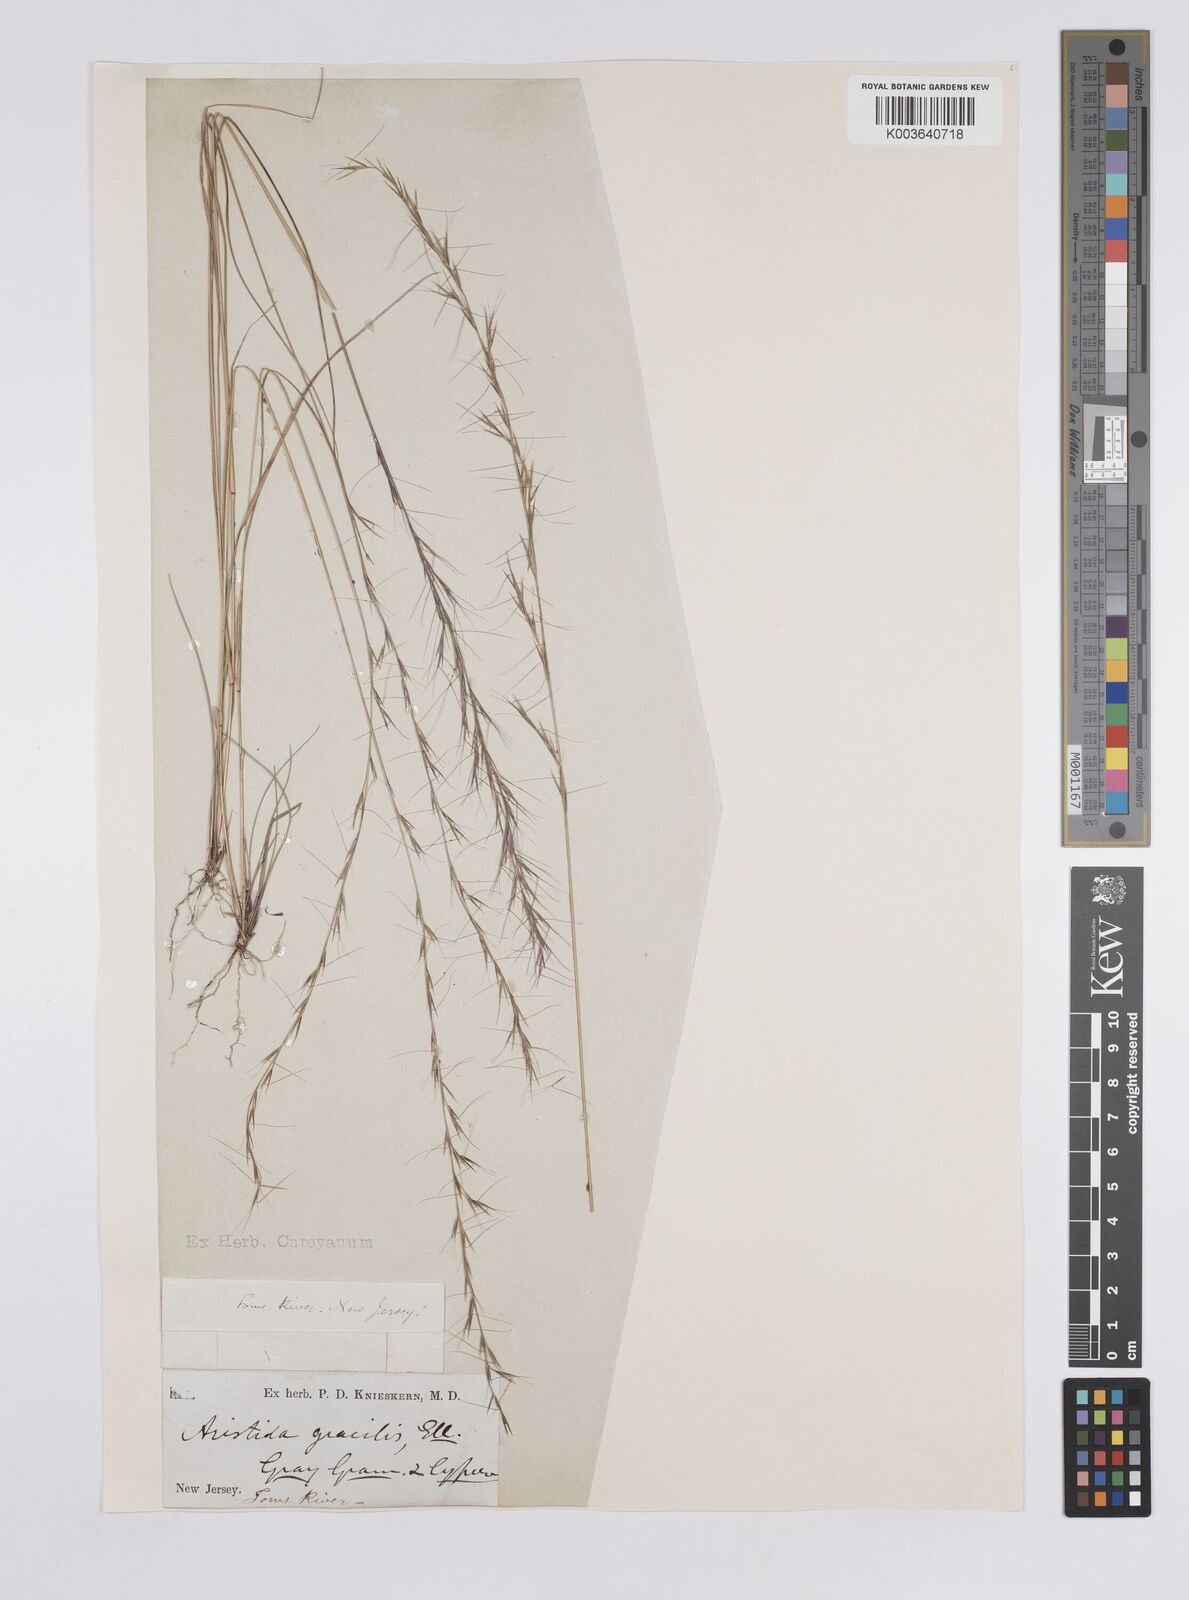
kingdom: Plantae
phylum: Tracheophyta
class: Liliopsida
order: Poales
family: Poaceae
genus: Aristida
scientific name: Aristida longespica
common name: Long-spiked triple-awned grass
